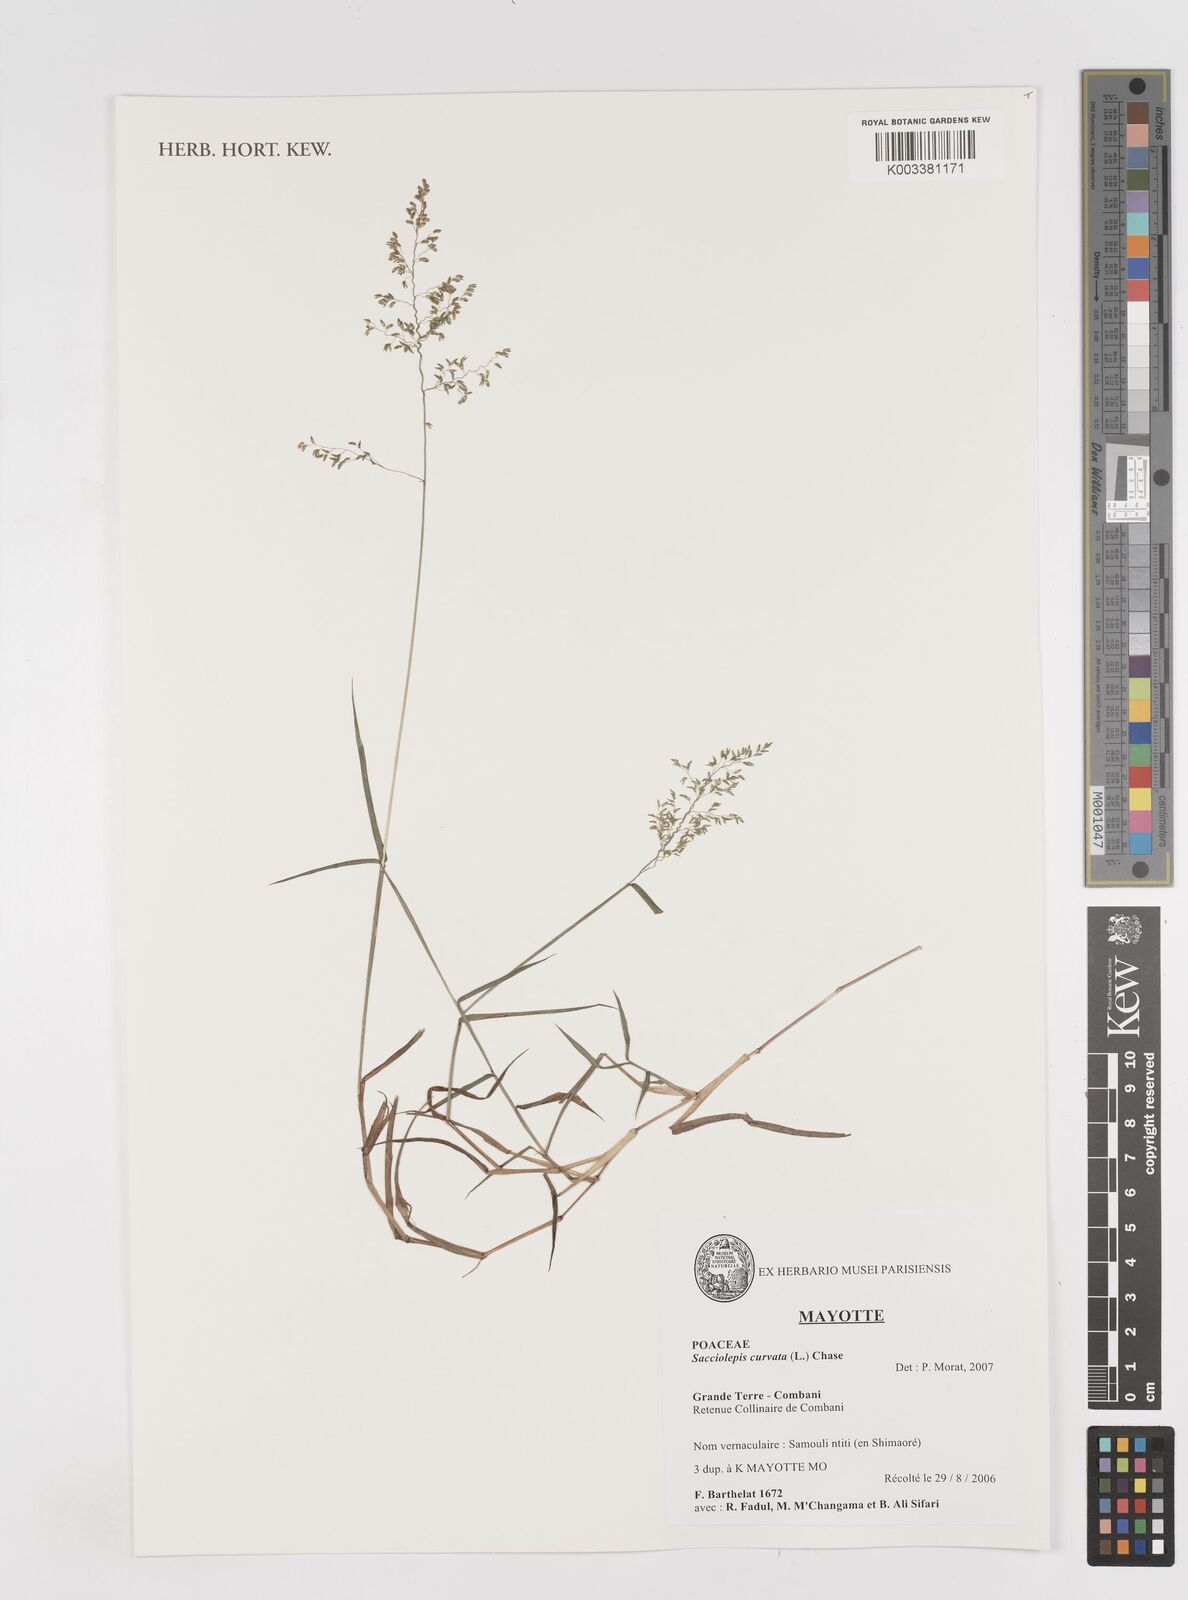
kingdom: Plantae
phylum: Tracheophyta
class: Liliopsida
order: Poales
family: Poaceae
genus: Sacciolepis
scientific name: Sacciolepis curvata
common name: Forest hood grass
